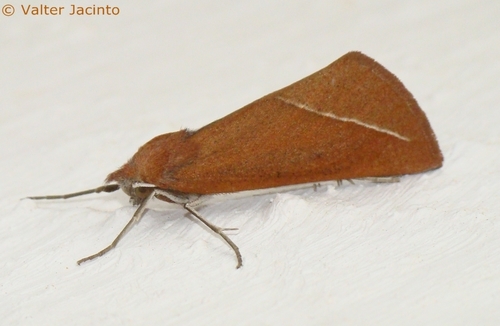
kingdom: Animalia
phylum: Arthropoda
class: Insecta
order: Lepidoptera
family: Geometridae
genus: Compsoptera
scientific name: Compsoptera opacaria
